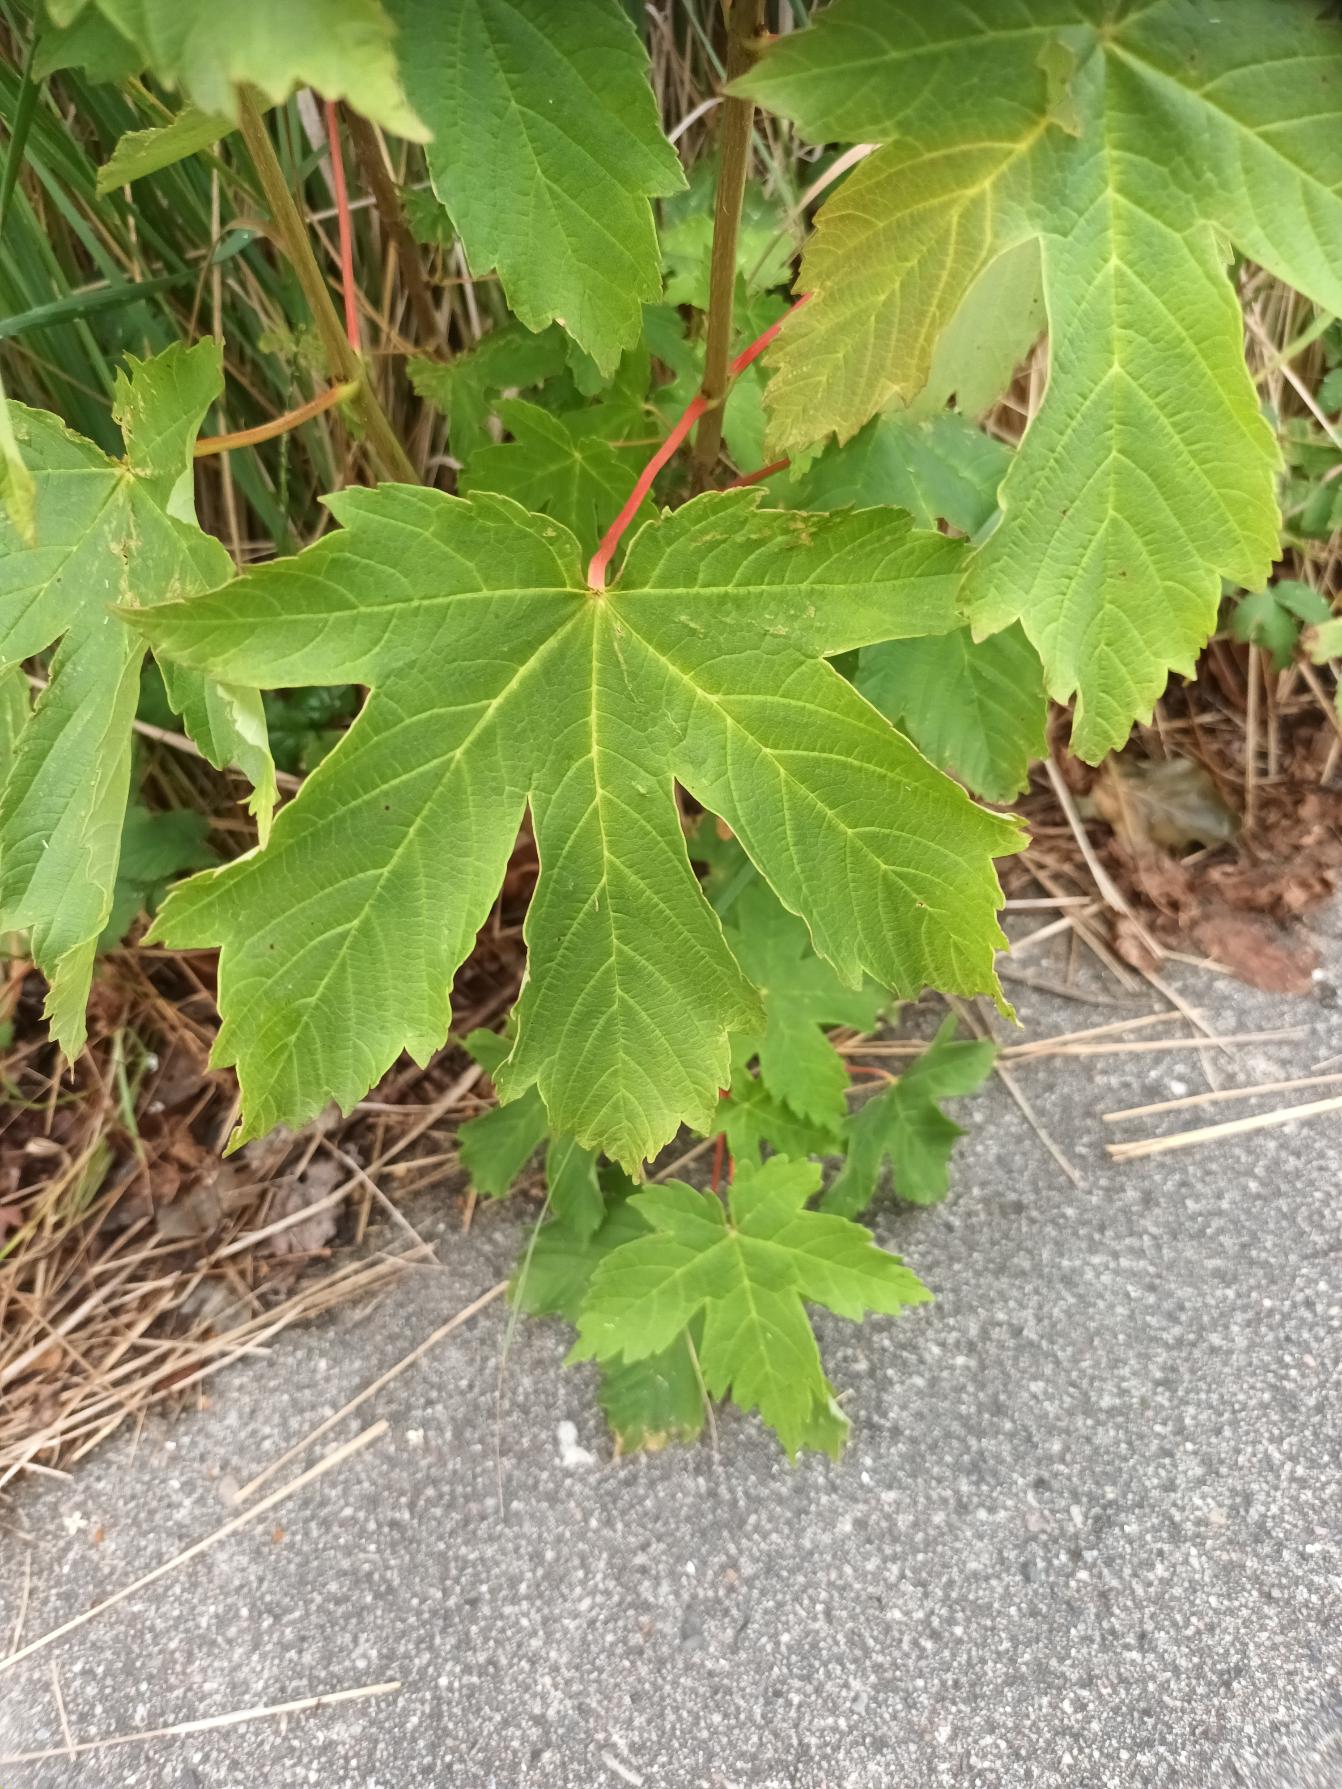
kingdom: Plantae
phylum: Tracheophyta
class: Magnoliopsida
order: Sapindales
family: Sapindaceae
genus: Acer
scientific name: Acer heldreichii
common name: Græsk løn
